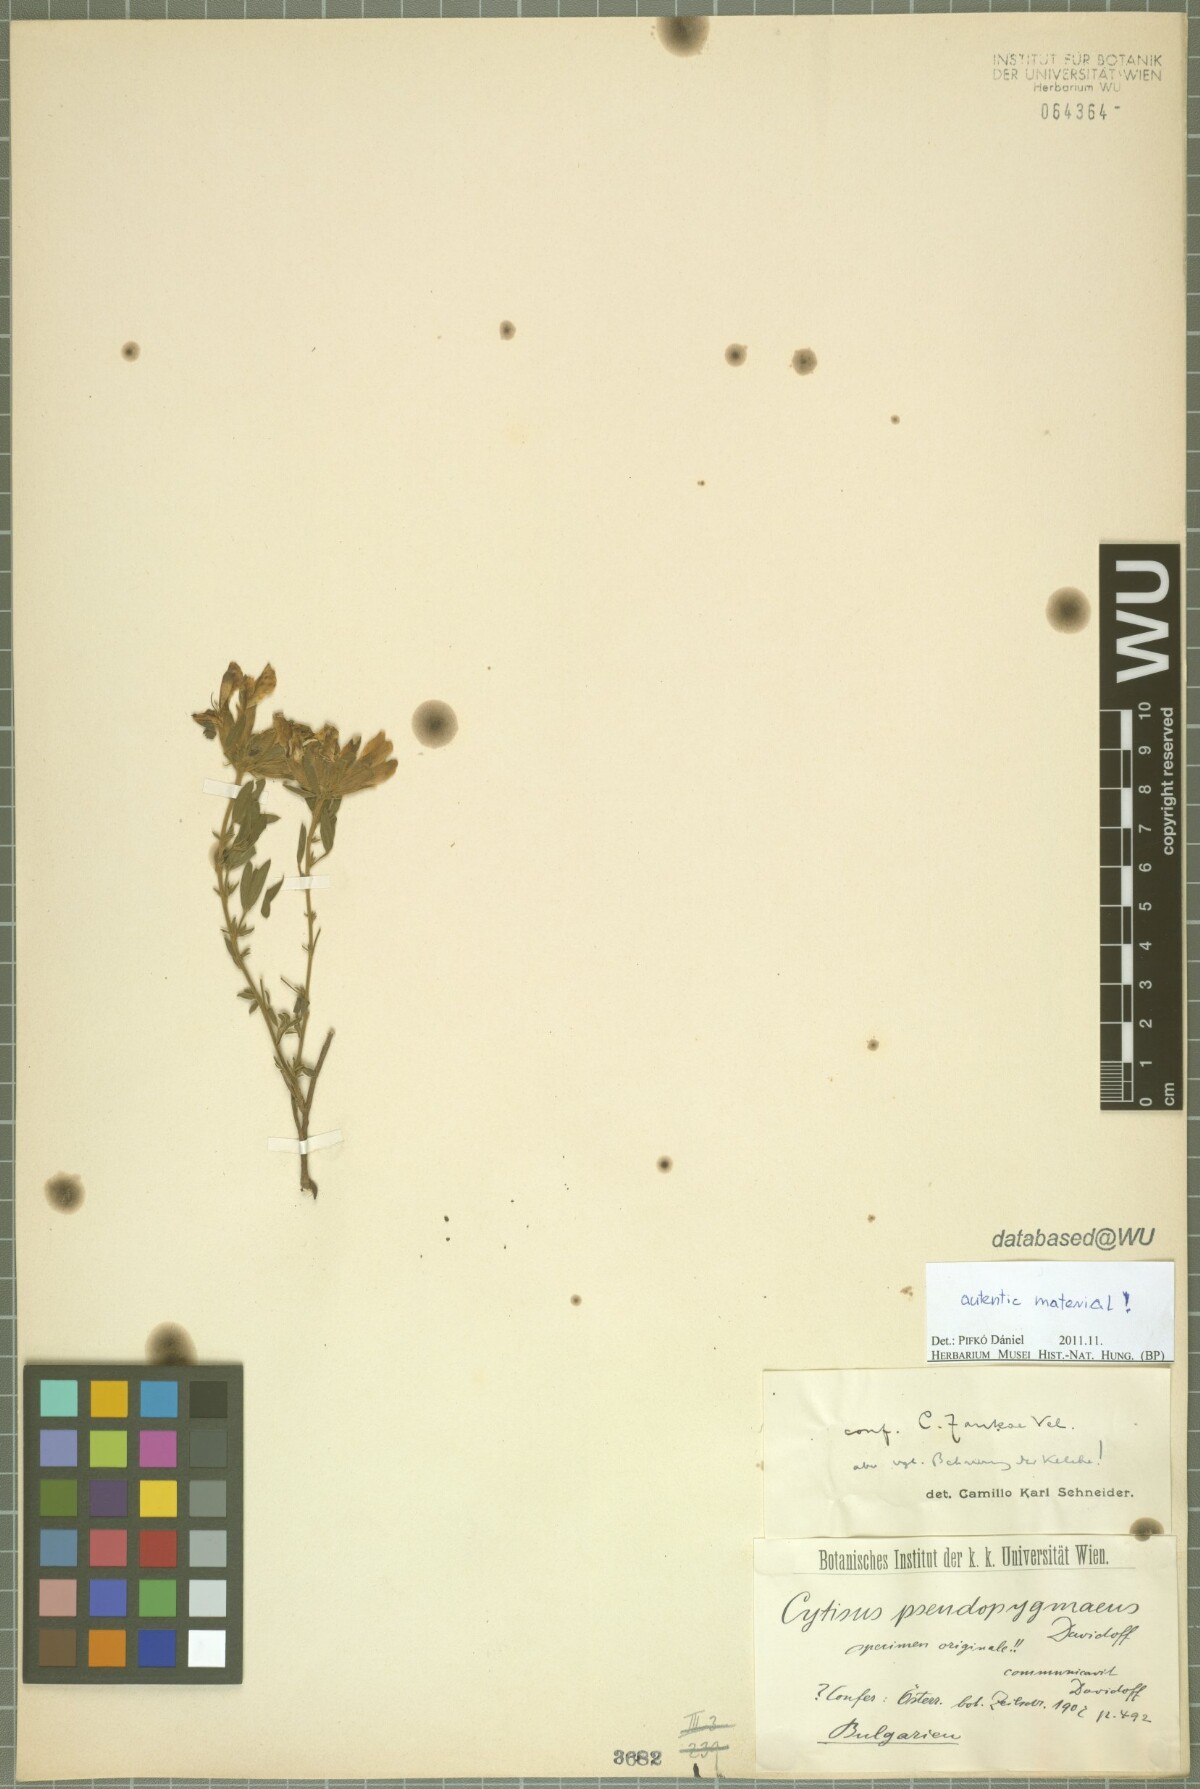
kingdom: Plantae
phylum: Tracheophyta
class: Magnoliopsida
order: Fabales
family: Fabaceae
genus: Chamaecytisus
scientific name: Chamaecytisus jankae
